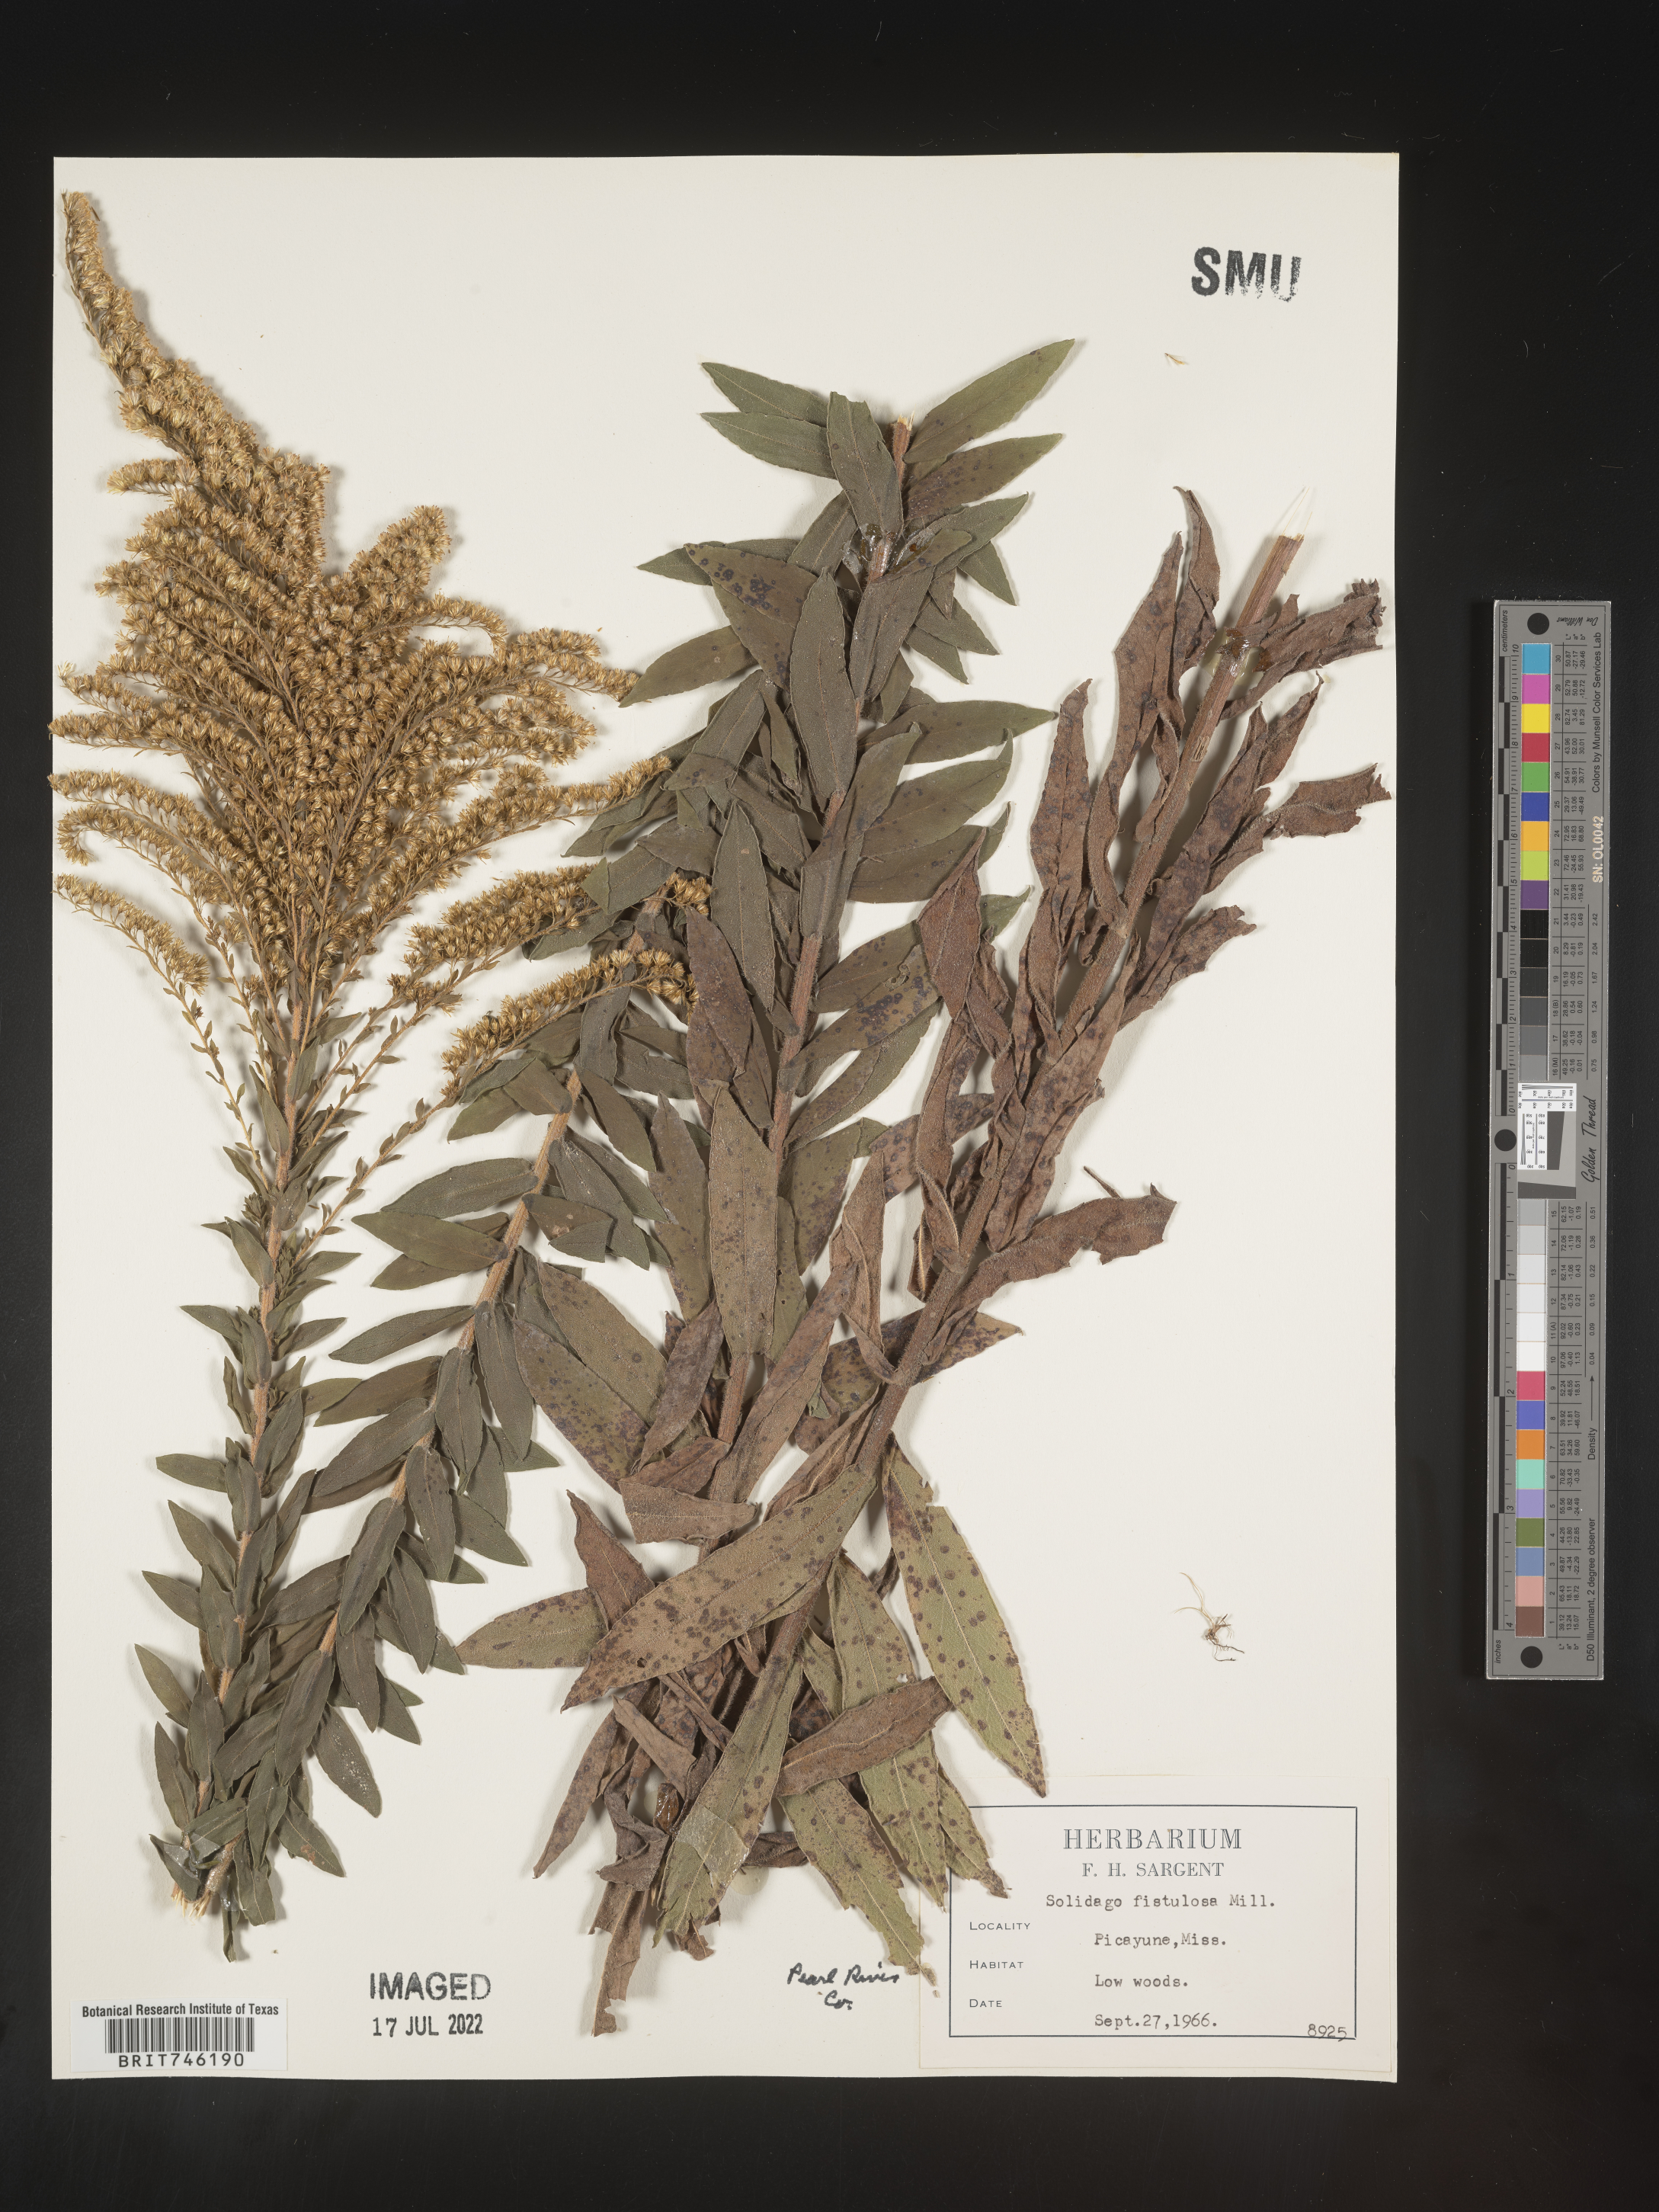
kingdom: Plantae
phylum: Tracheophyta
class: Magnoliopsida
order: Asterales
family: Asteraceae
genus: Solidago
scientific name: Solidago fistulosa
